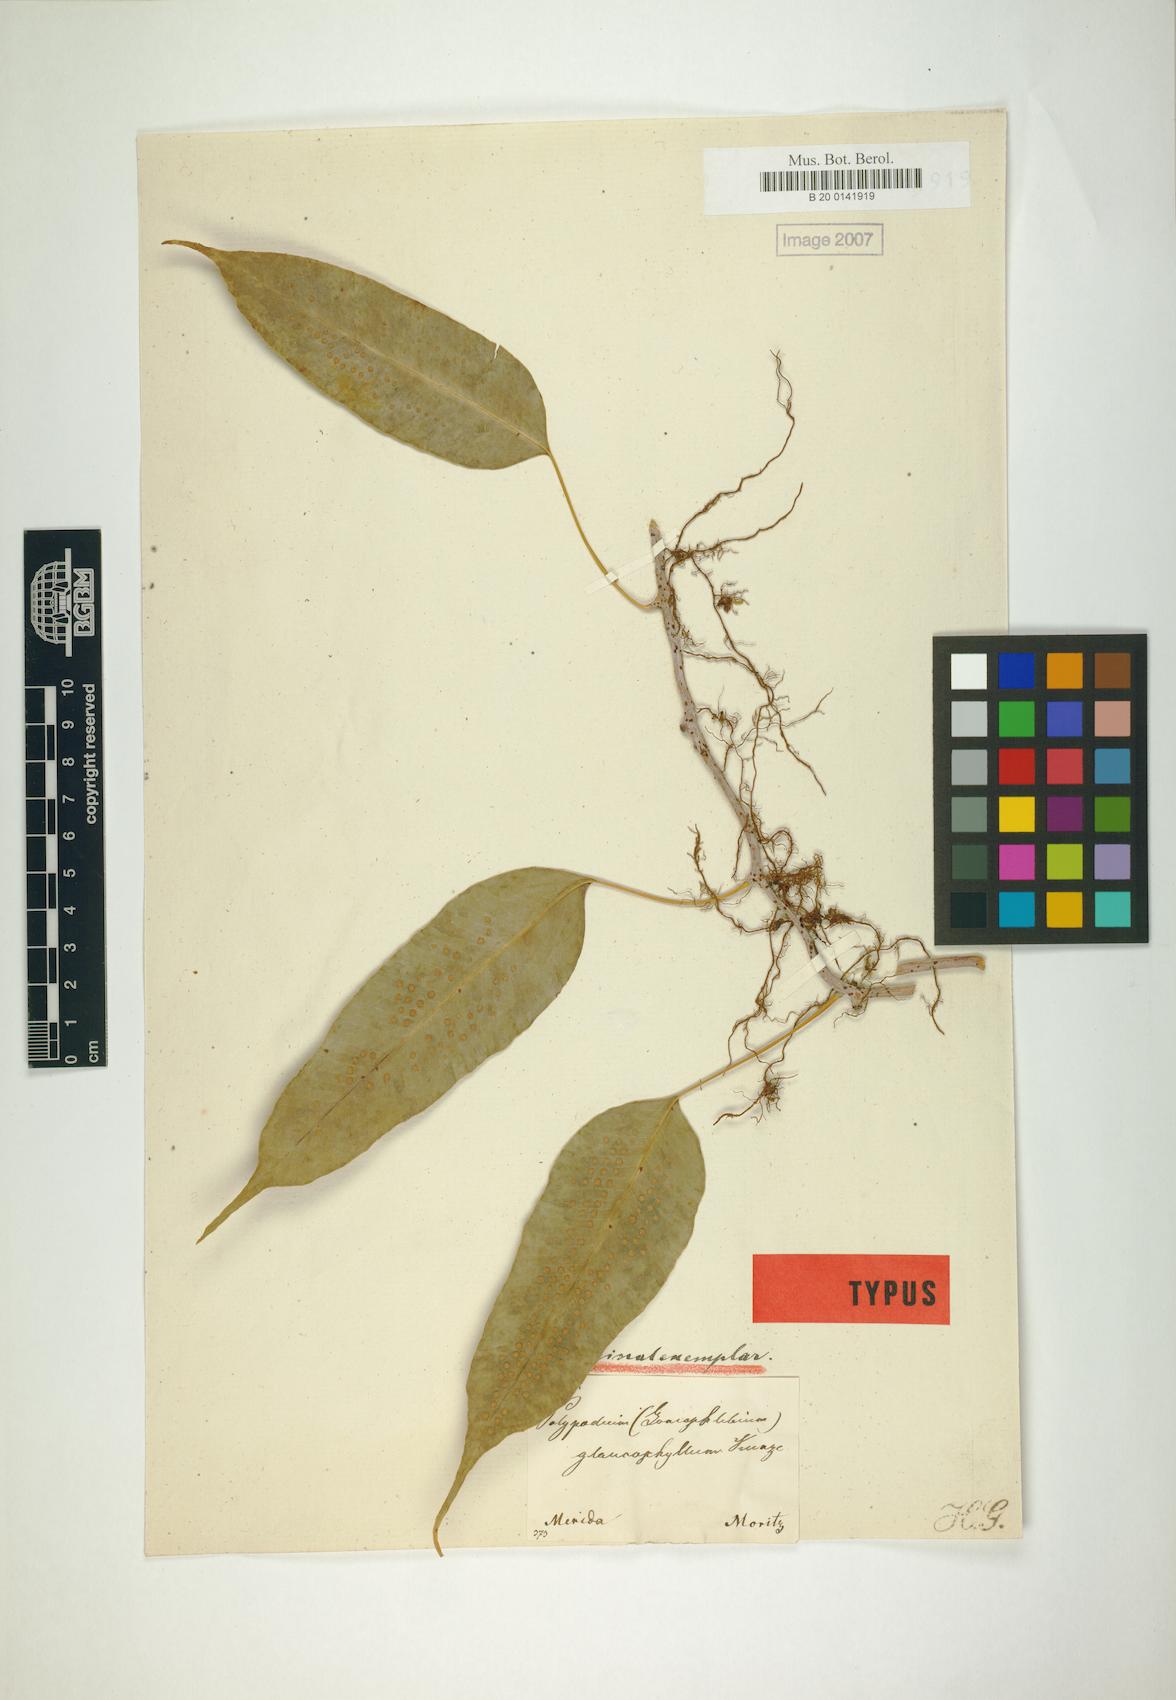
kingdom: Plantae
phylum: Tracheophyta
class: Polypodiopsida
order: Polypodiales
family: Polypodiaceae
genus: Serpocaulon
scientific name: Serpocaulon levigatum
